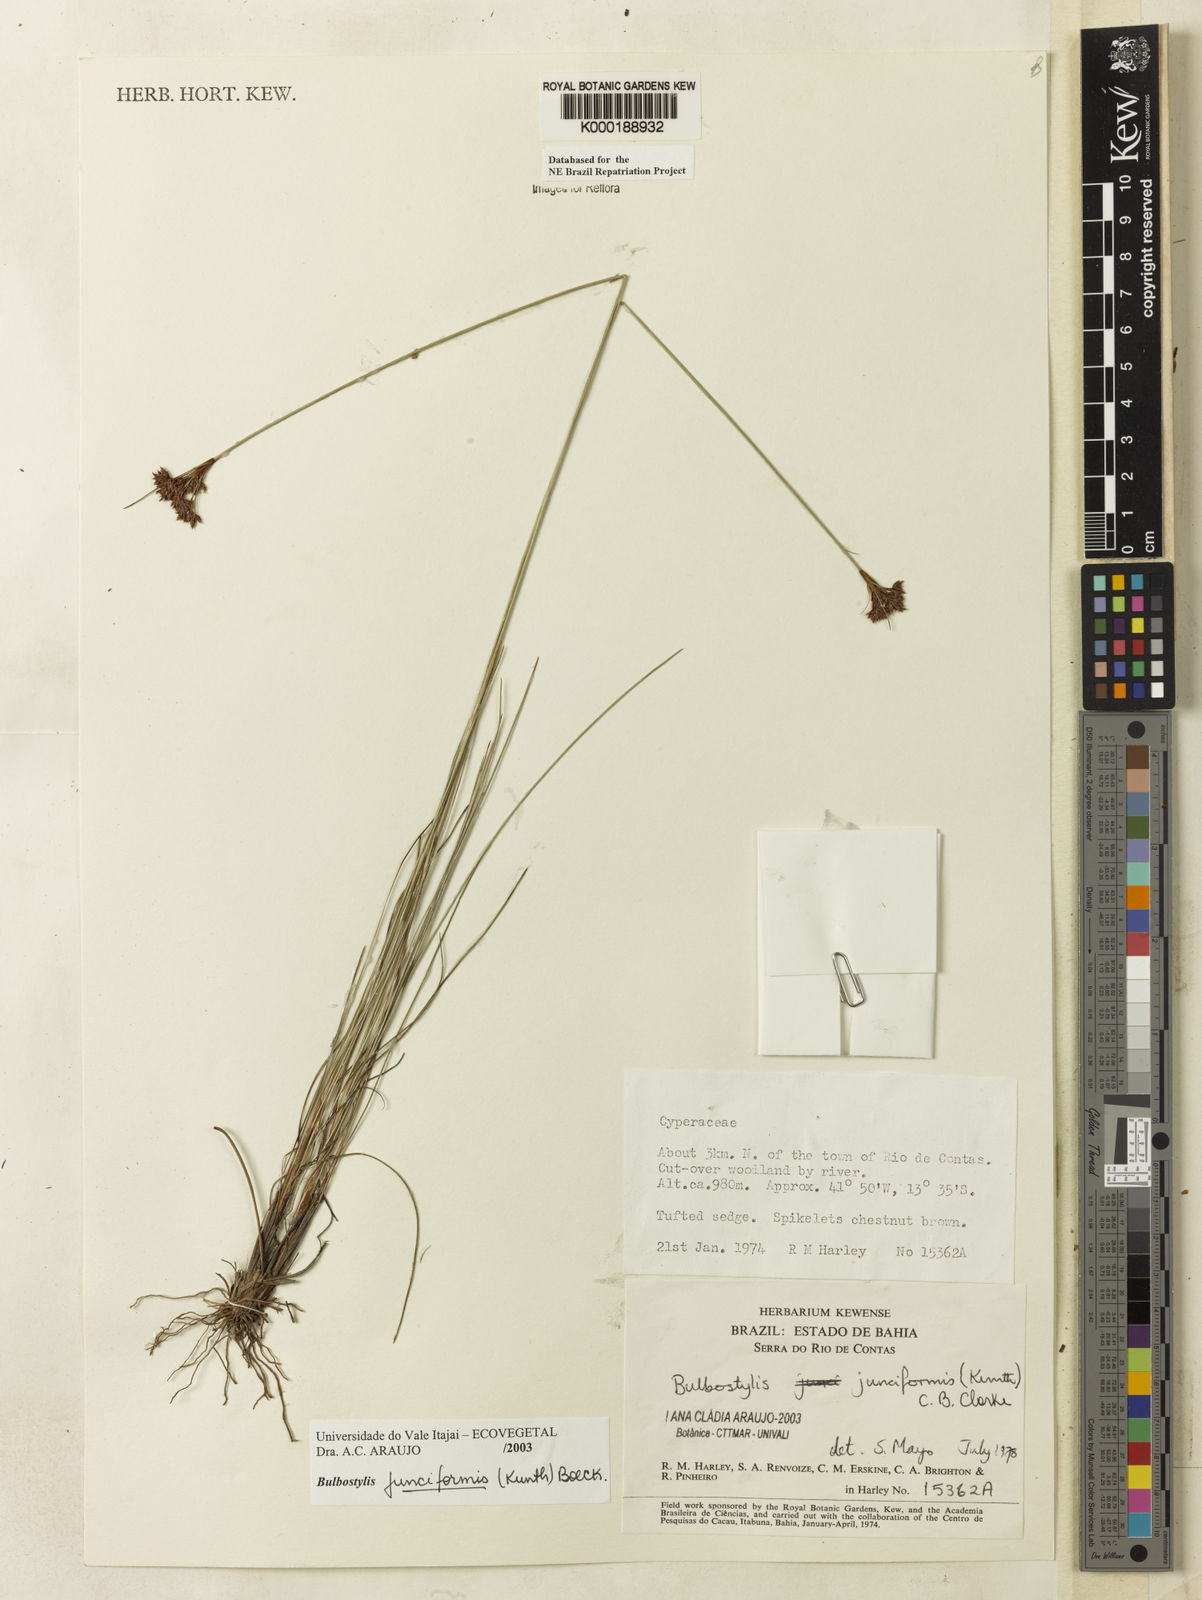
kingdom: Plantae
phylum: Tracheophyta
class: Liliopsida
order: Poales
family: Cyperaceae
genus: Bulbostylis
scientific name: Bulbostylis
